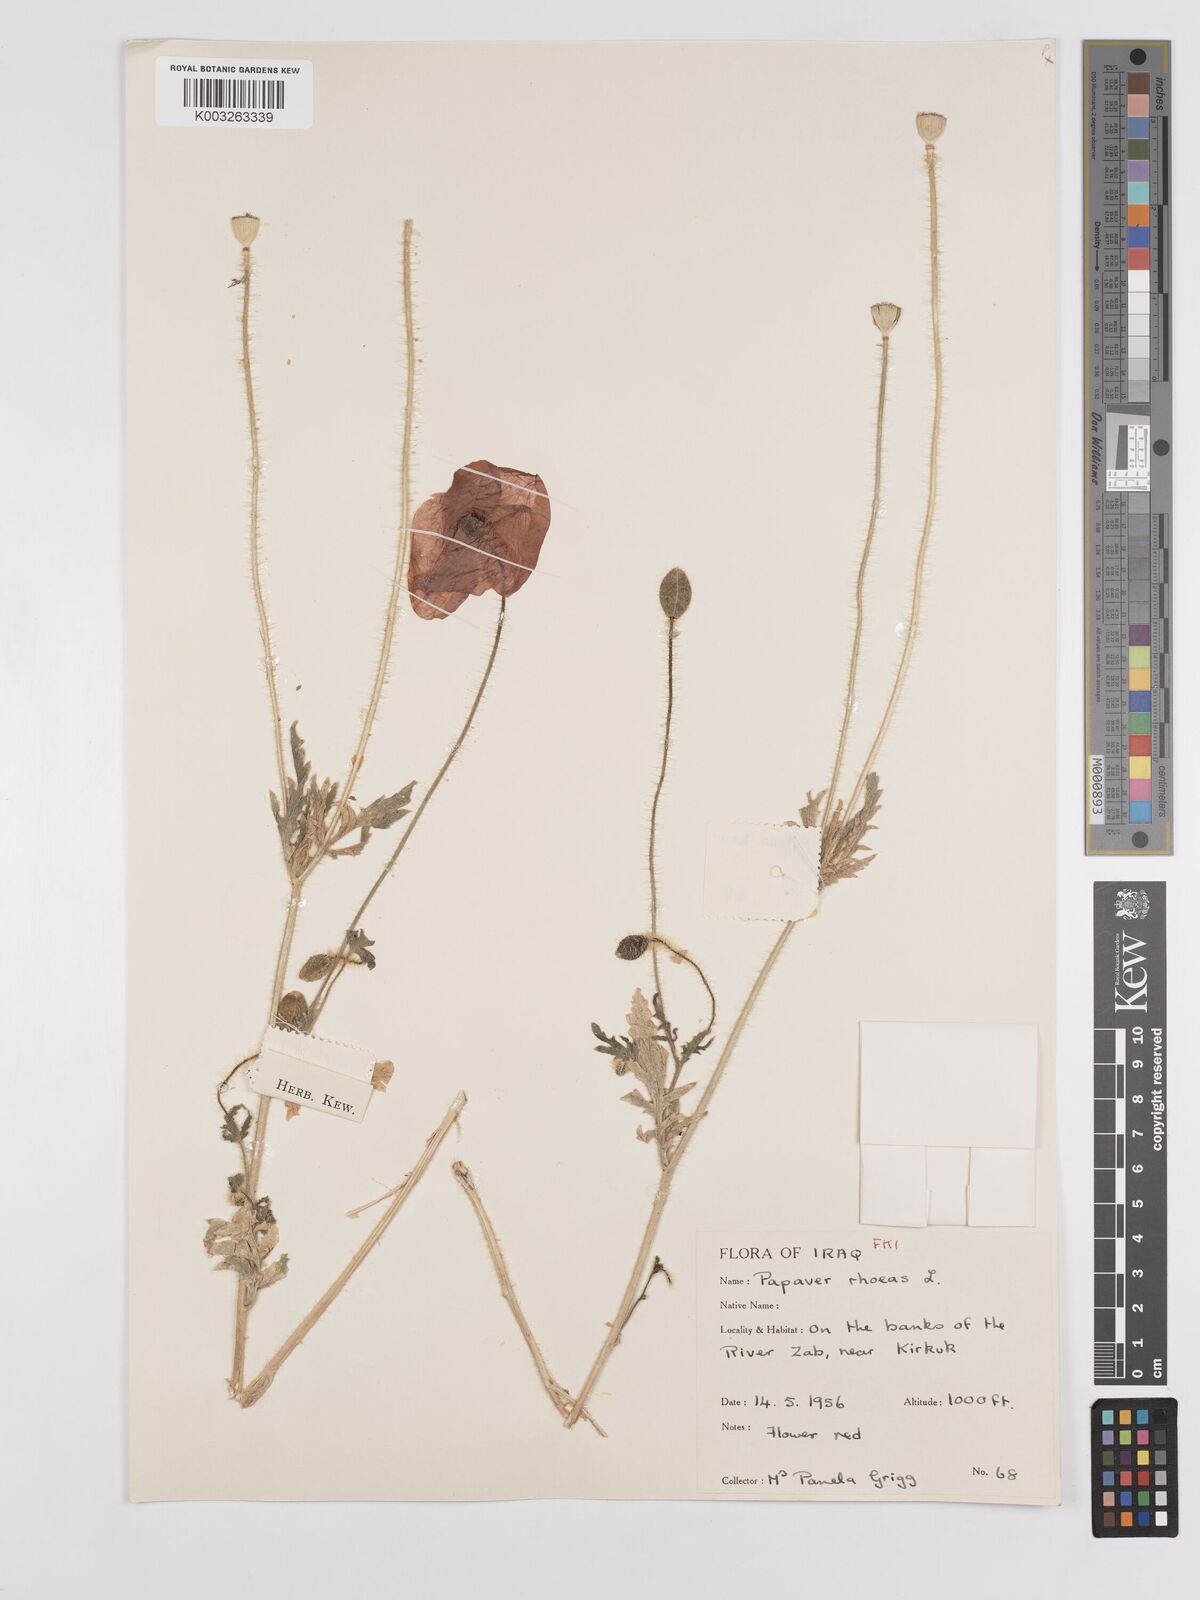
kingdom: Plantae
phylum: Tracheophyta
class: Magnoliopsida
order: Ranunculales
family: Papaveraceae
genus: Papaver
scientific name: Papaver rhoeas
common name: Corn poppy
